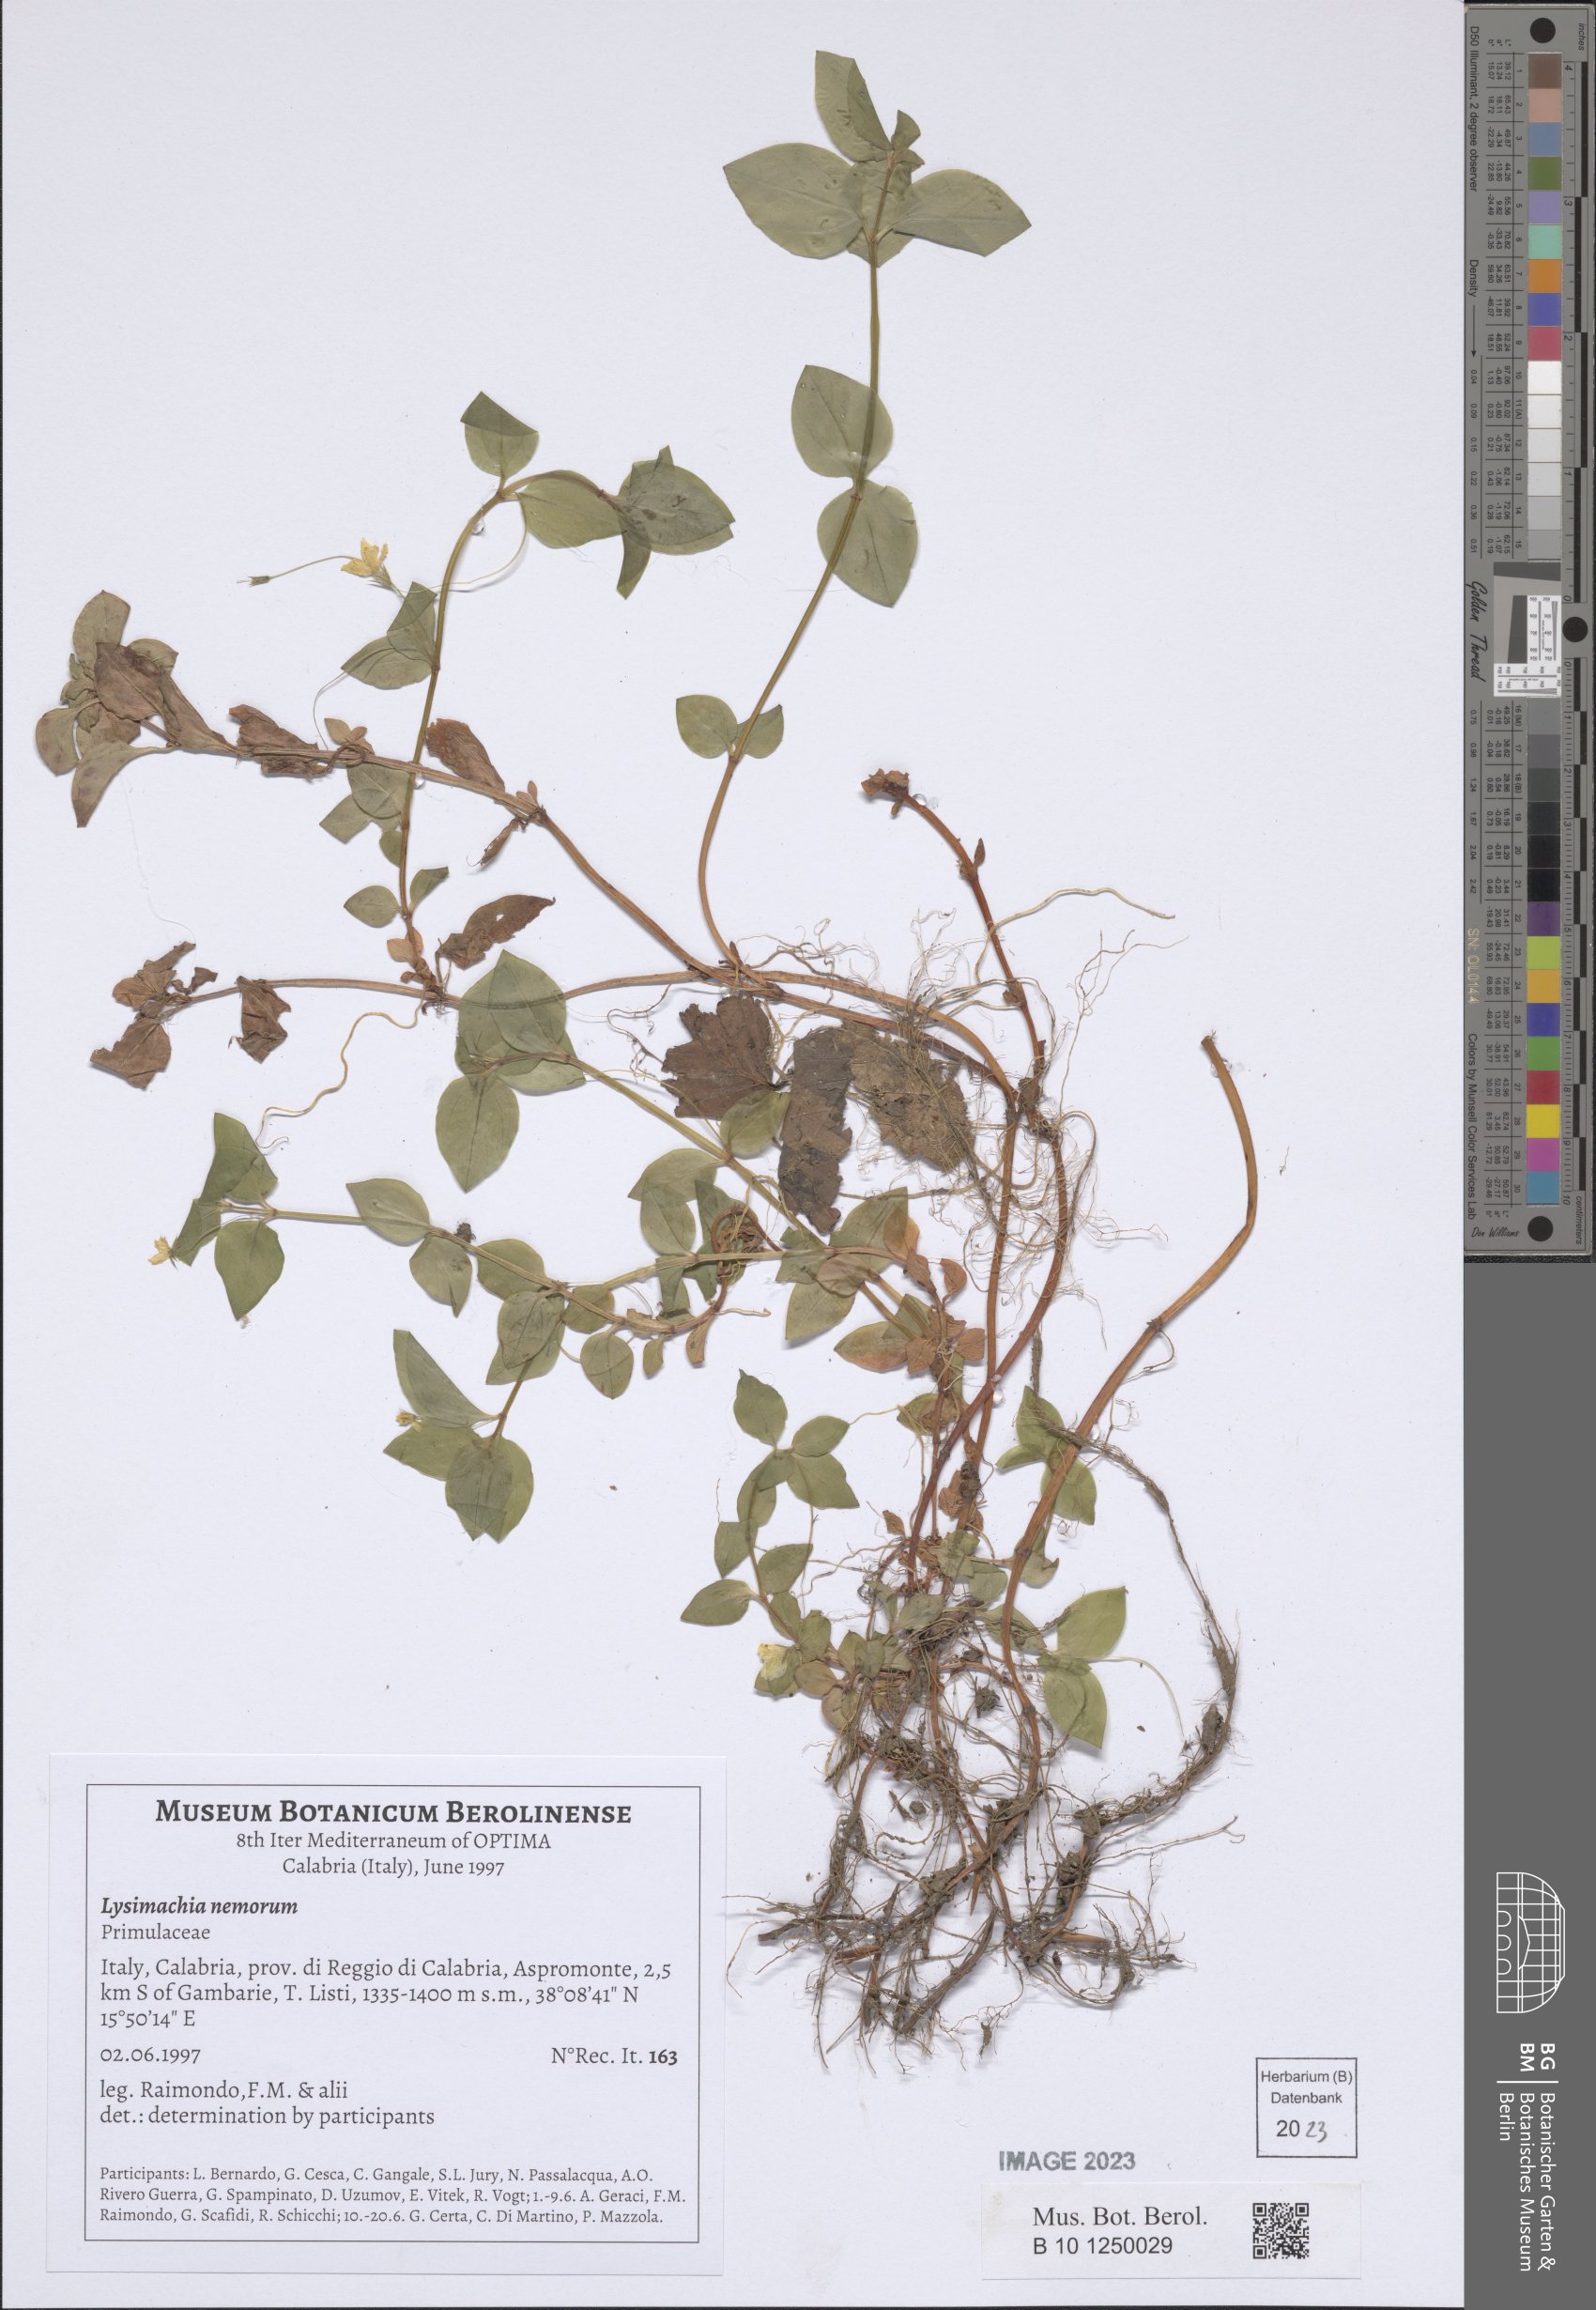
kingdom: Plantae
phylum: Tracheophyta
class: Magnoliopsida
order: Ericales
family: Primulaceae
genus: Lysimachia
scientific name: Lysimachia nemorum
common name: Yellow pimpernel
